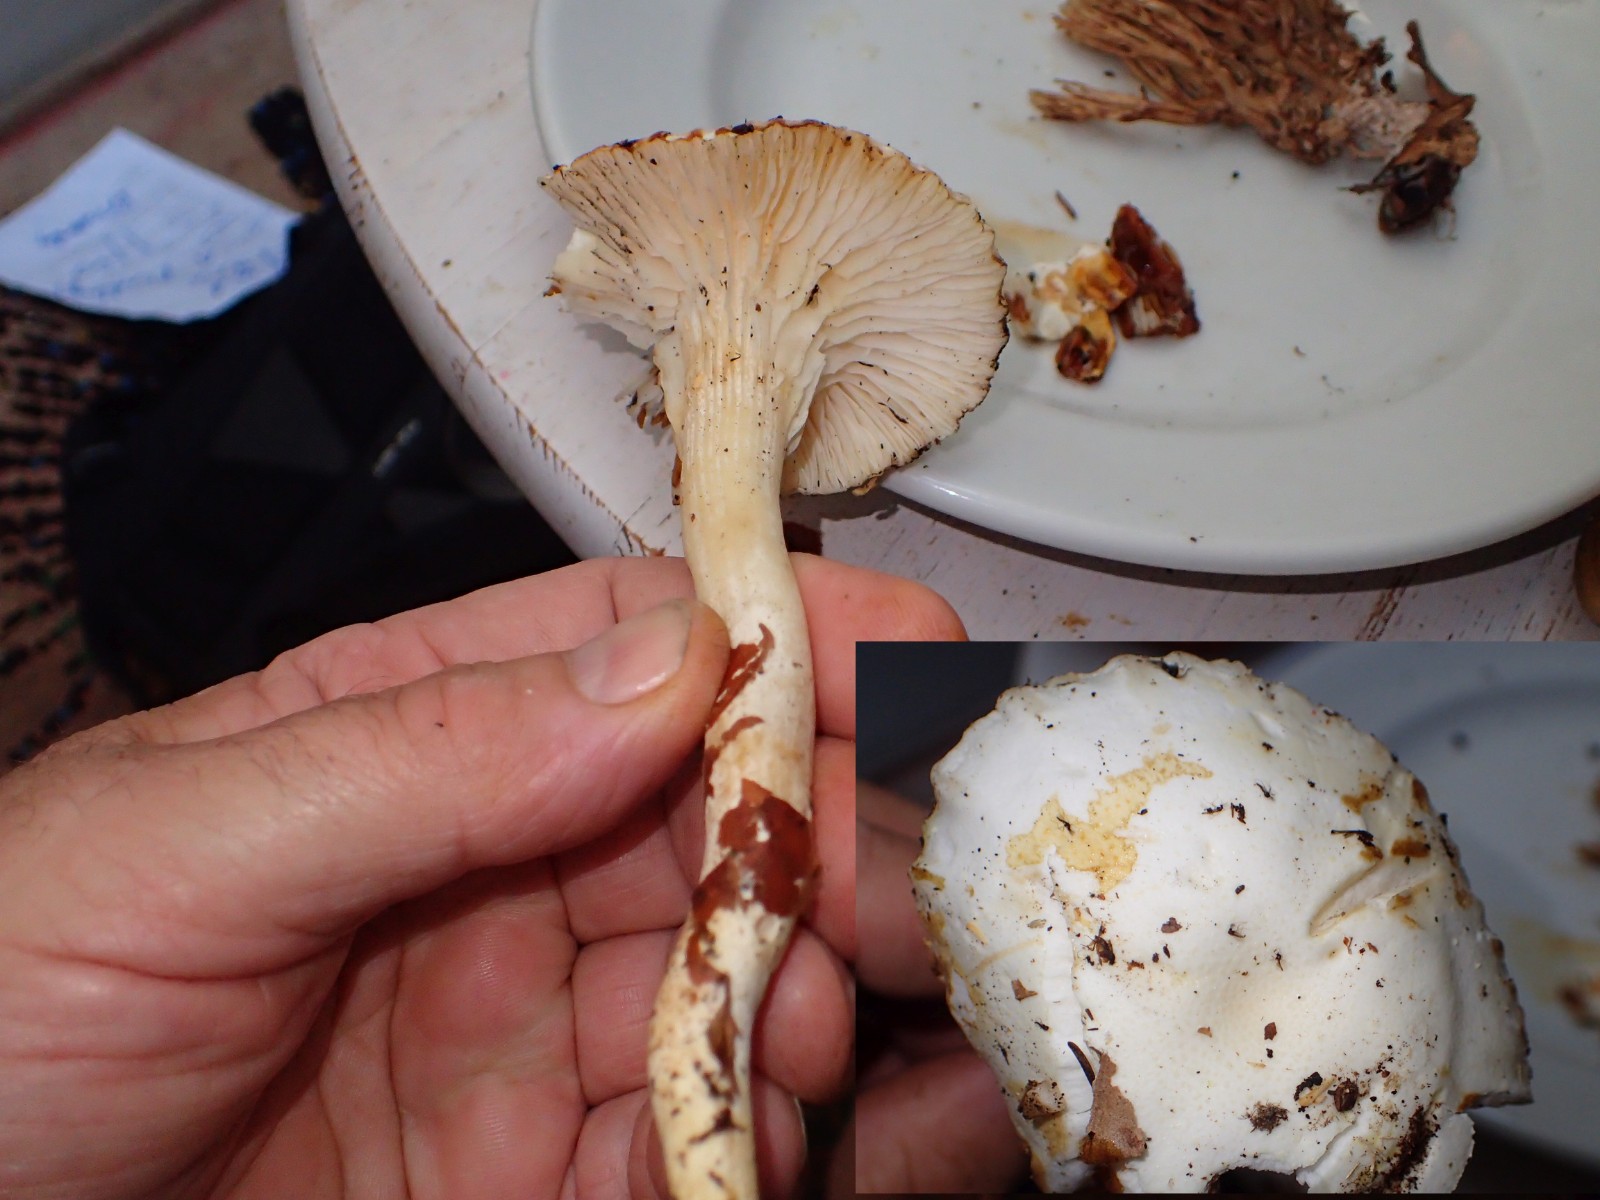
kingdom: Fungi
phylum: Basidiomycota
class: Agaricomycetes
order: Agaricales
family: Hygrophoraceae
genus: Hygrophorus
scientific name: Hygrophorus discoxanthus
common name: ildelugtende sneglehat
